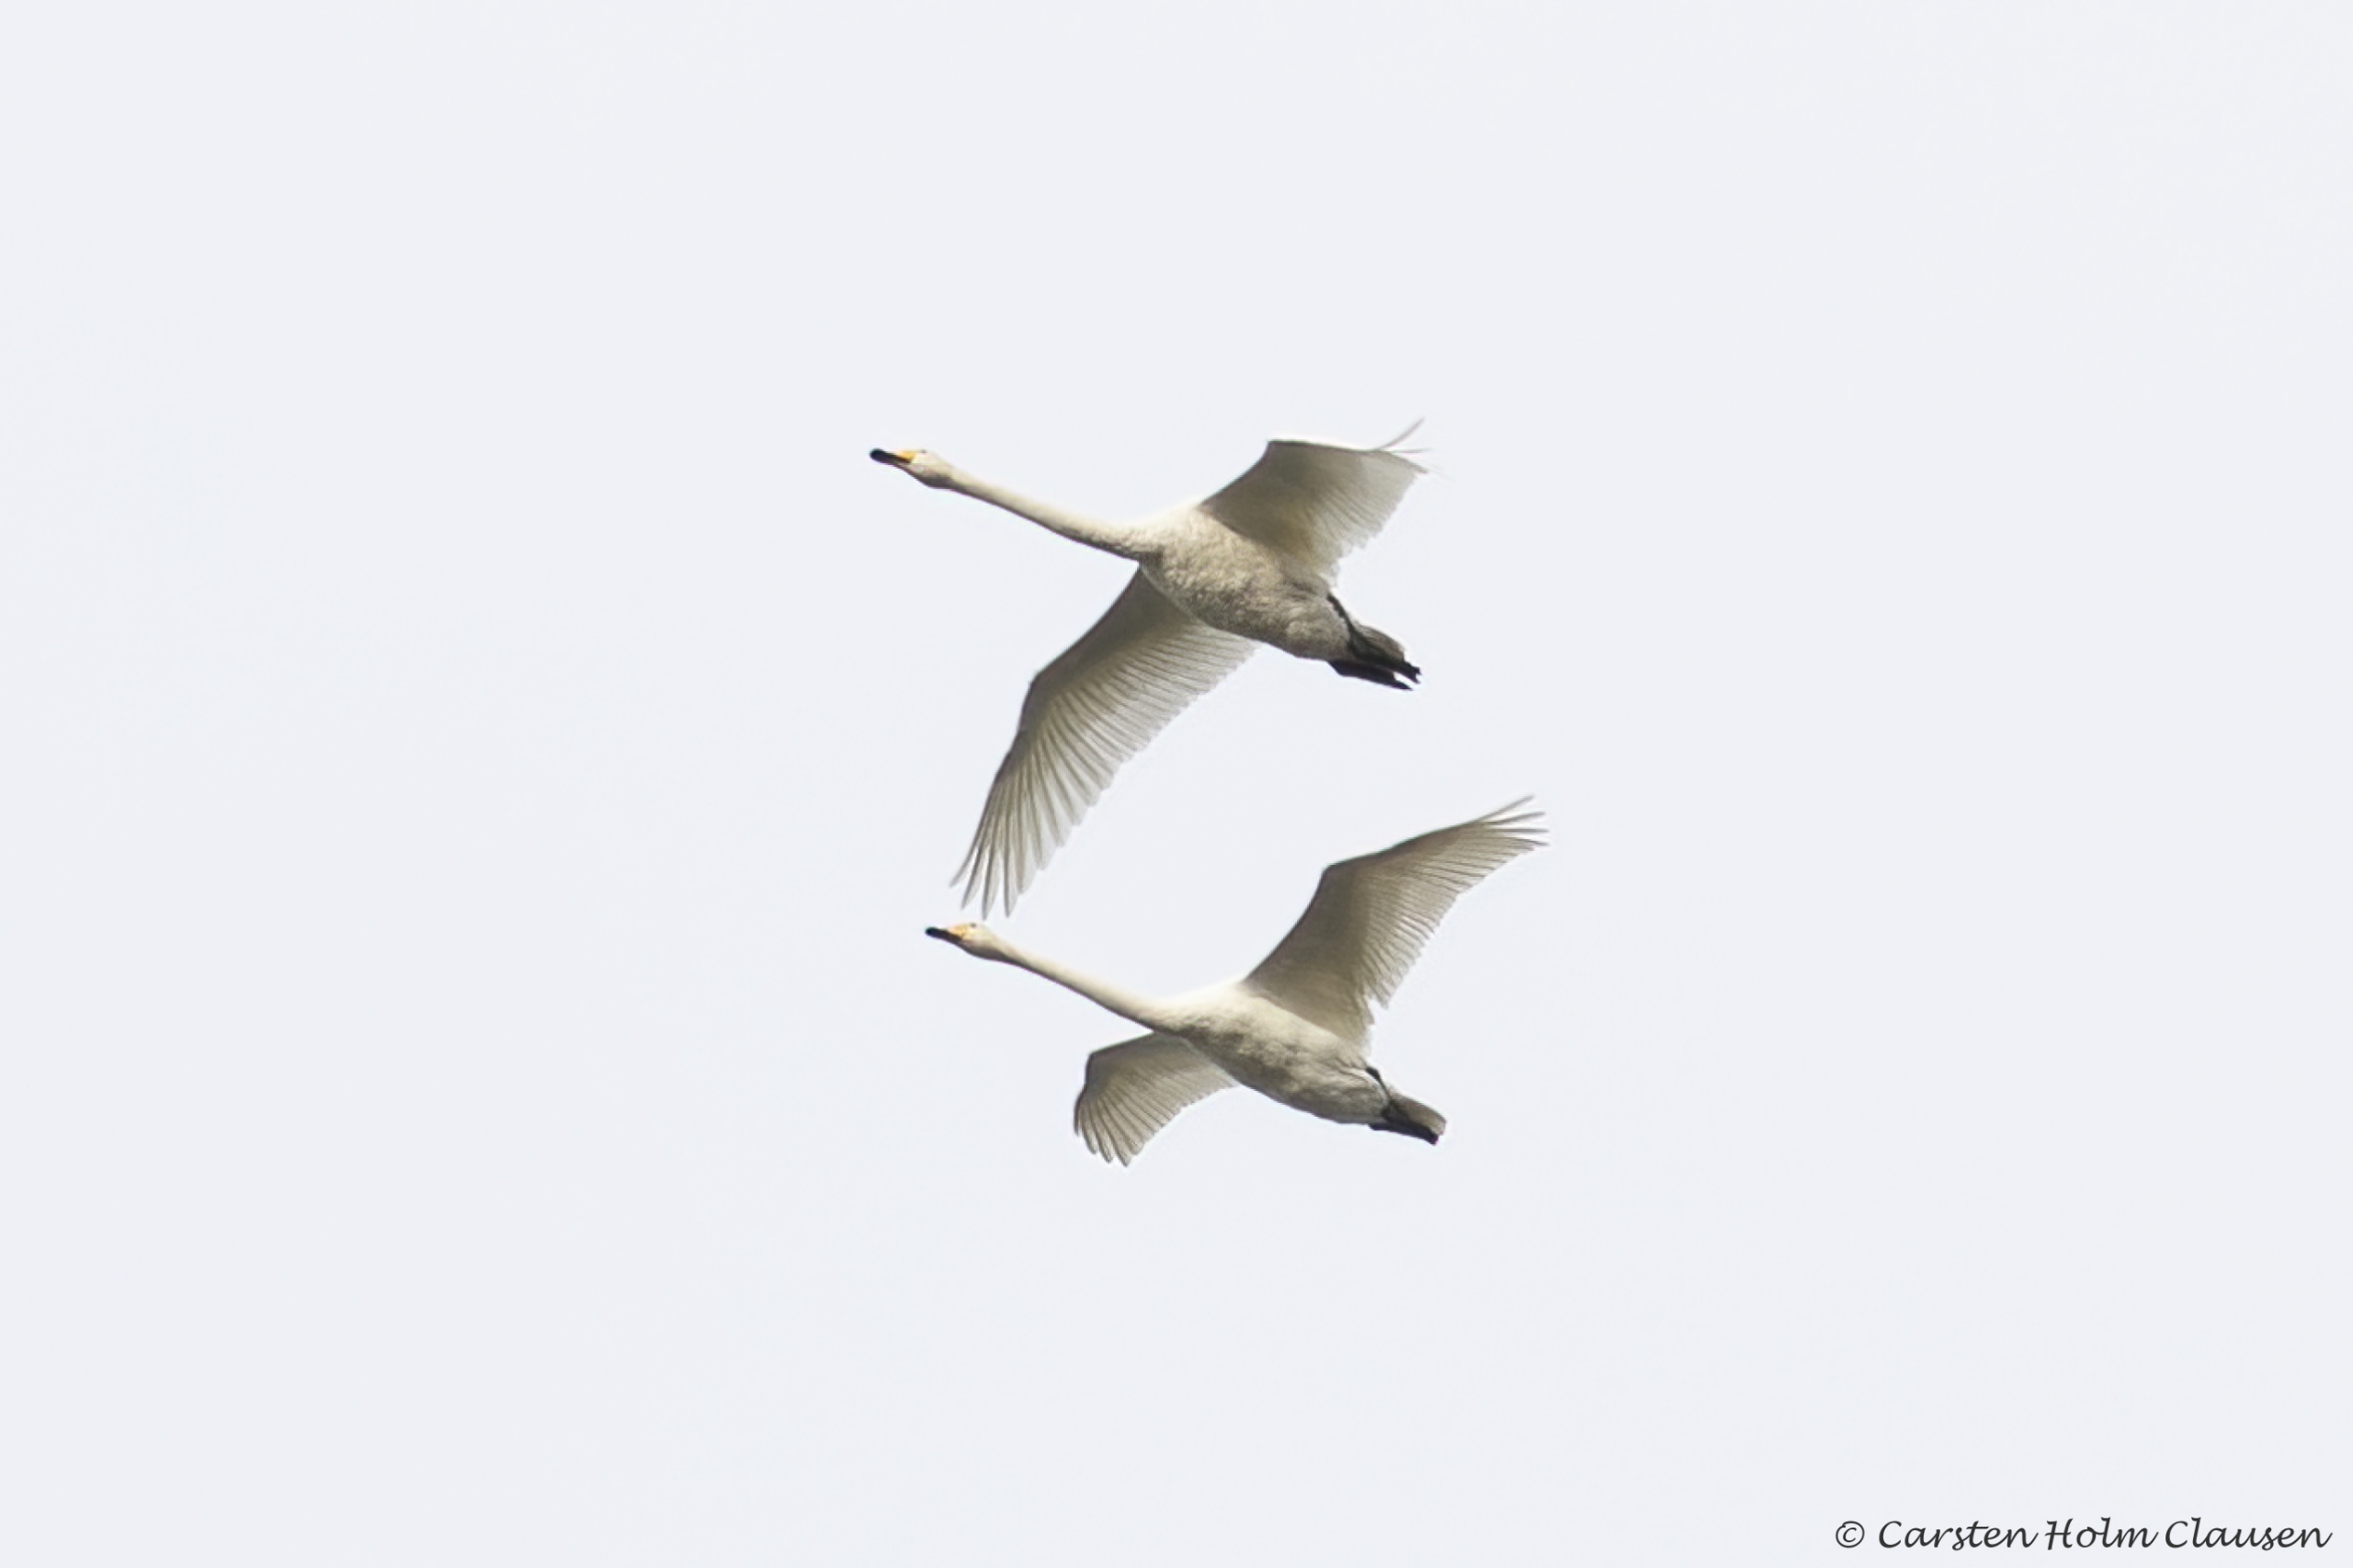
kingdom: Animalia
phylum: Chordata
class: Aves
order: Anseriformes
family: Anatidae
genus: Cygnus
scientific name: Cygnus cygnus
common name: Sangsvane
